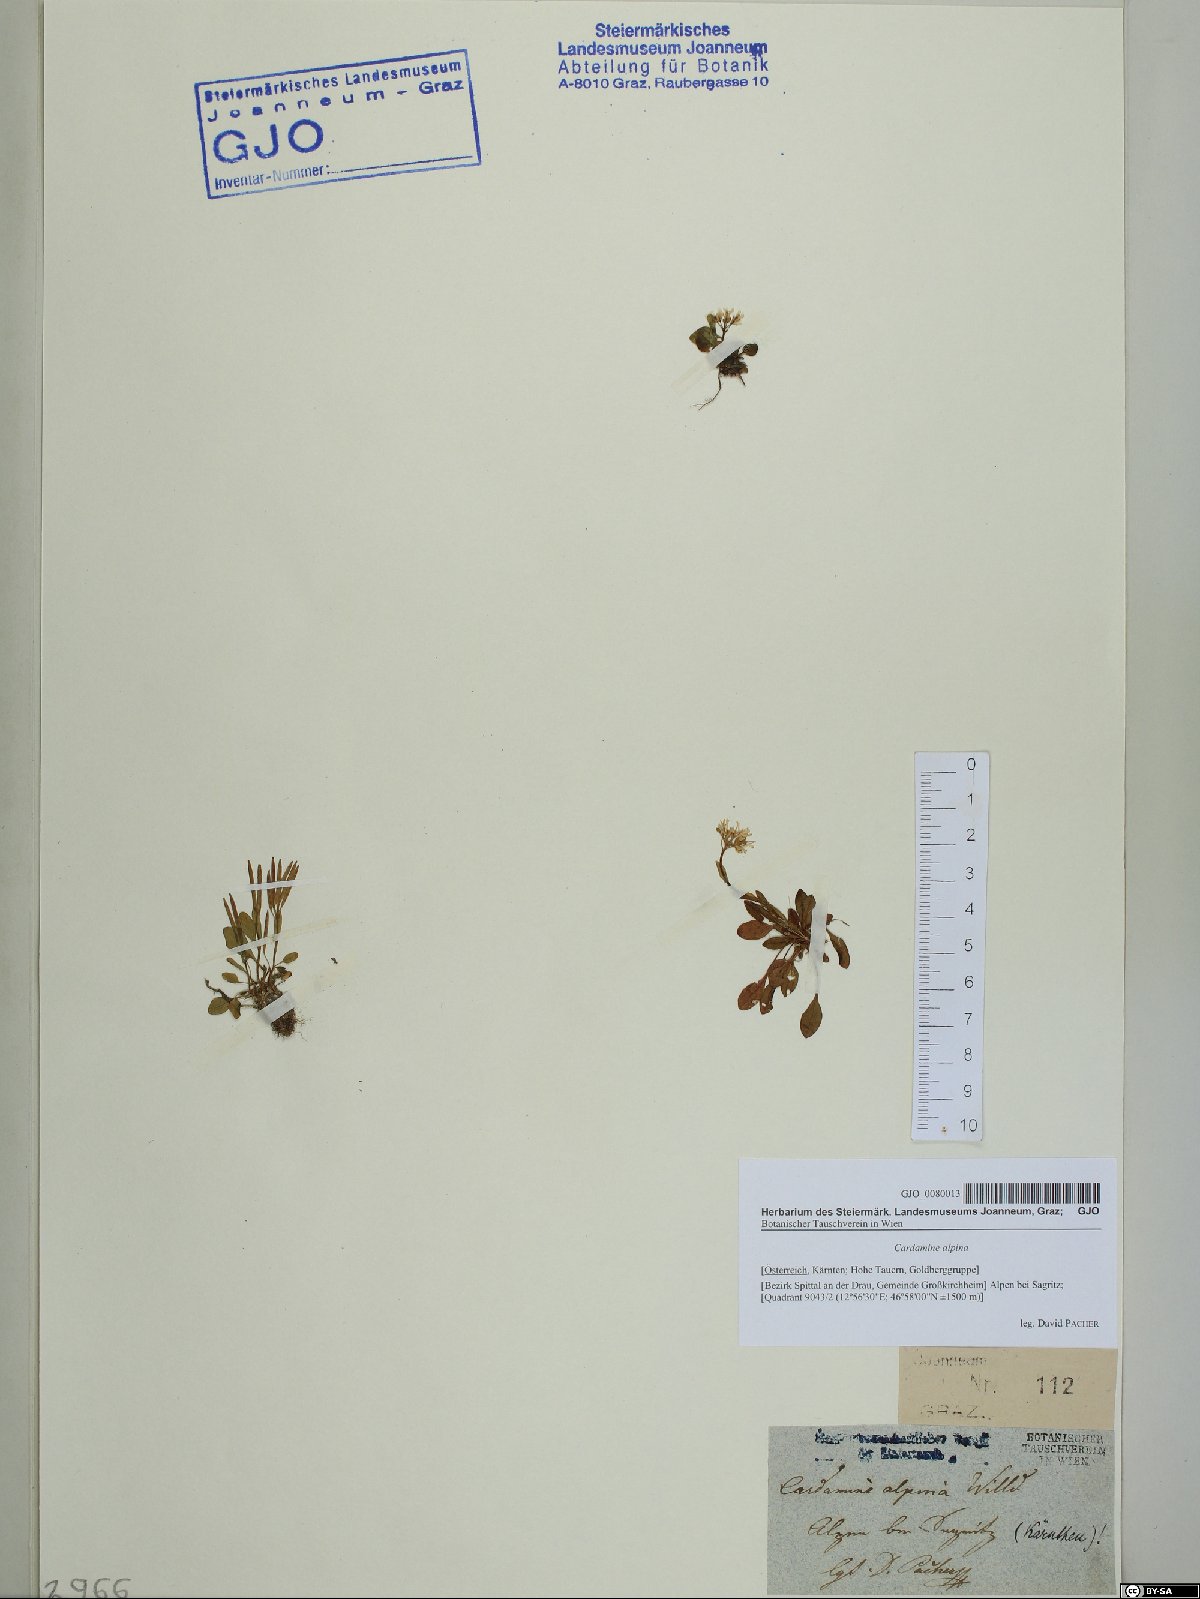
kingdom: Plantae
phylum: Tracheophyta
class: Magnoliopsida
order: Brassicales
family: Brassicaceae
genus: Cardamine
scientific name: Cardamine bellidifolia
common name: Alpine bittercress
